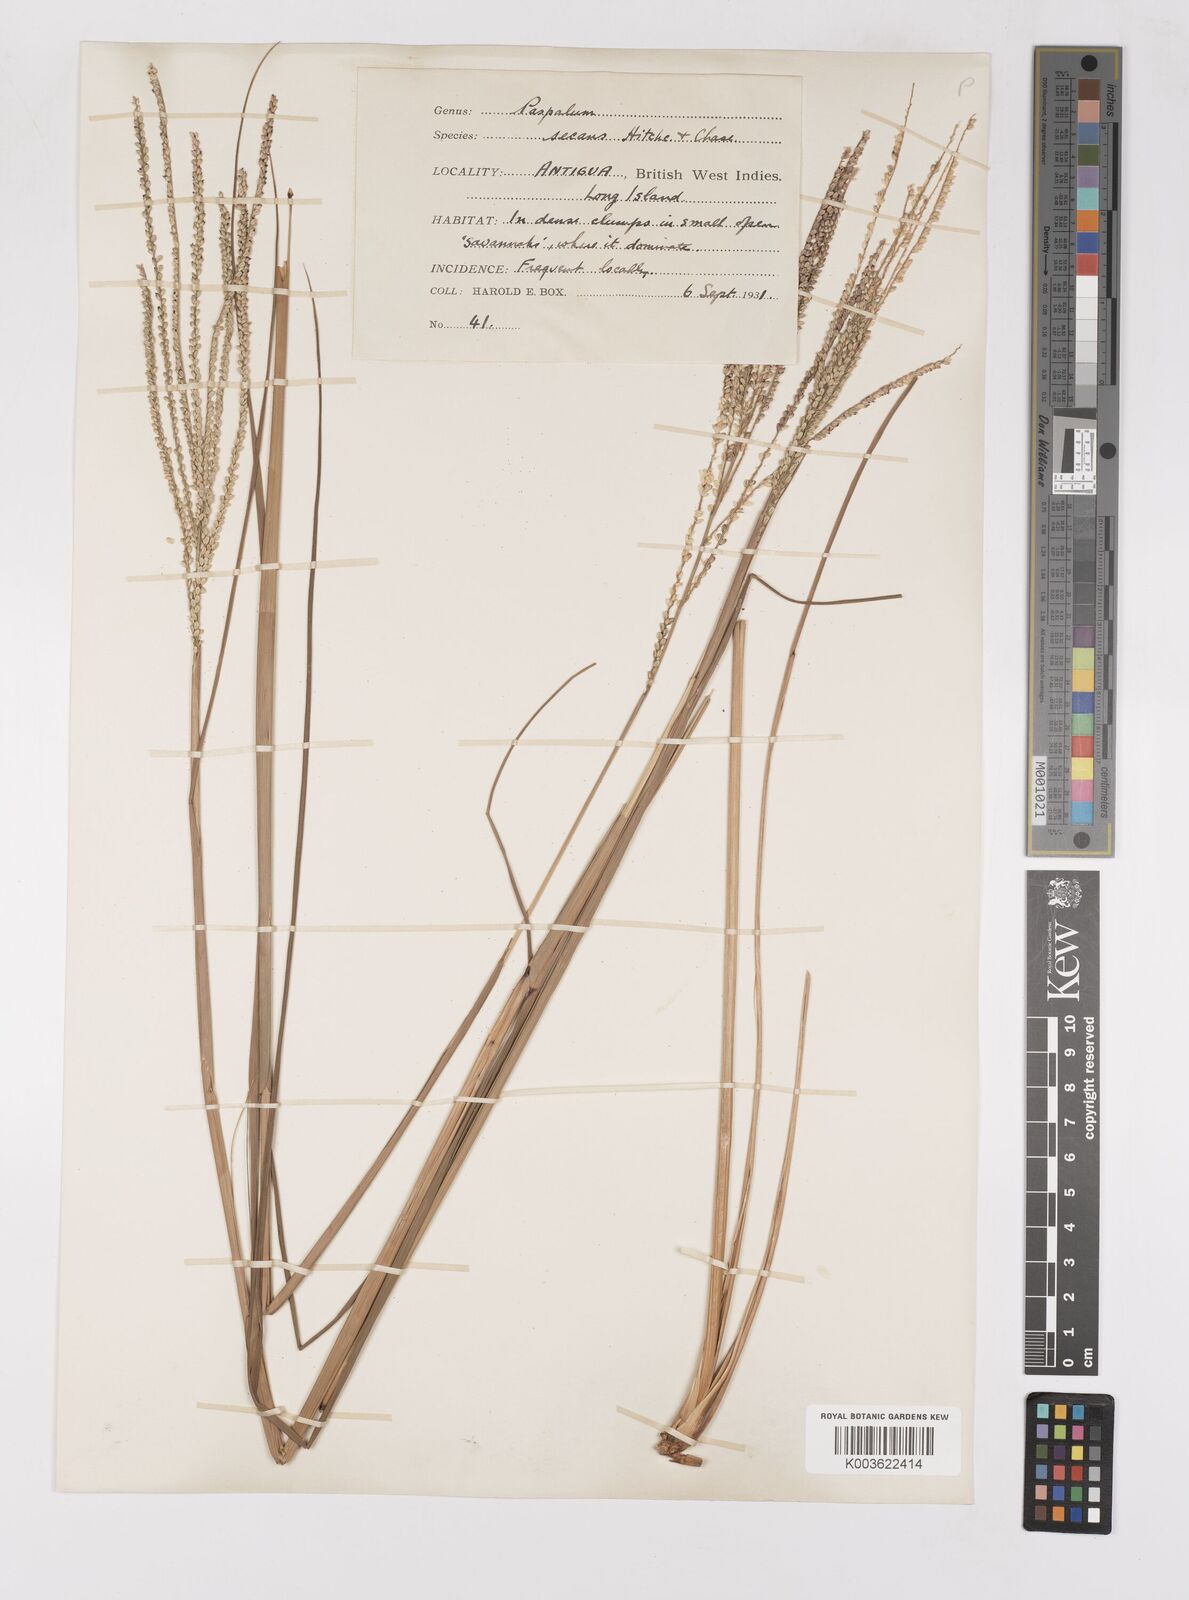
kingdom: Plantae
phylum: Tracheophyta
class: Liliopsida
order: Poales
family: Poaceae
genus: Paspalum
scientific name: Paspalum arundinaceum
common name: Thick ditch crowngrass
